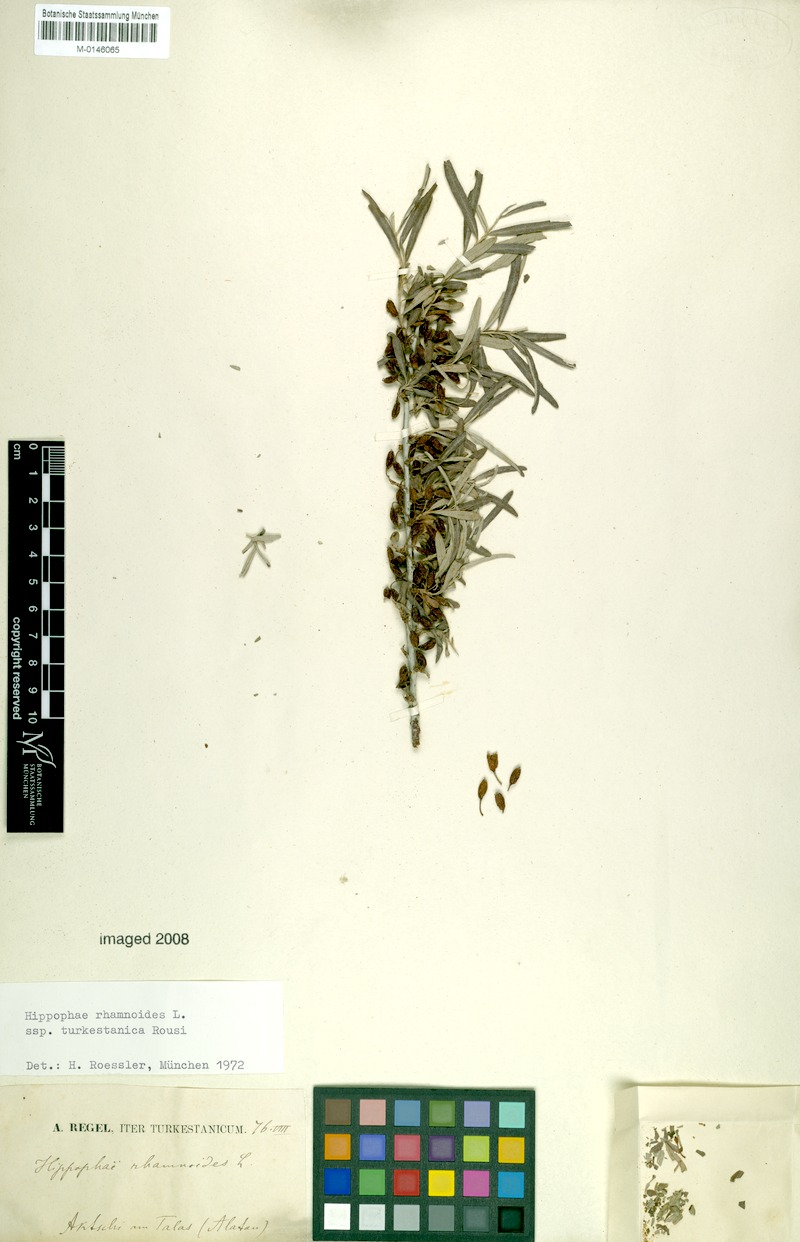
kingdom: Plantae
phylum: Tracheophyta
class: Magnoliopsida
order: Rosales
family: Elaeagnaceae
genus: Hippophae
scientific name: Hippophae rhamnoides
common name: Sea-buckthorn
